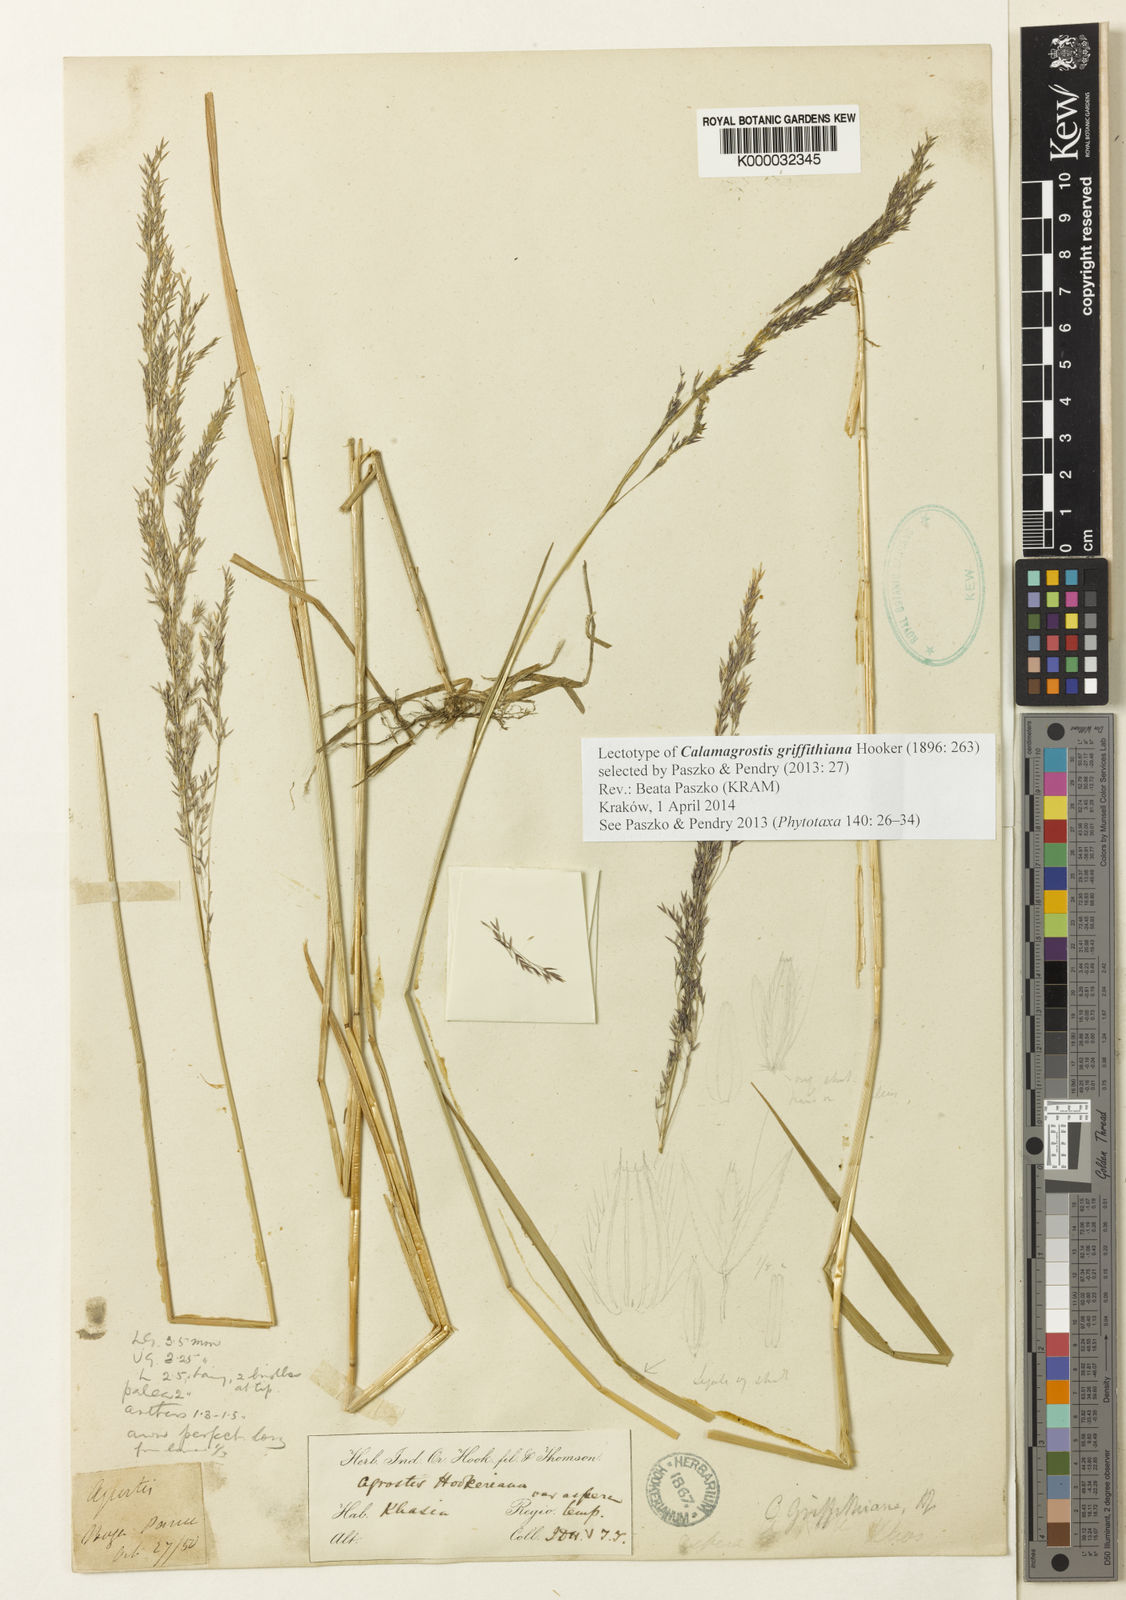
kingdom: Plantae
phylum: Tracheophyta
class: Liliopsida
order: Poales
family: Poaceae
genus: Agrostis
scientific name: Agrostis griffithiana
